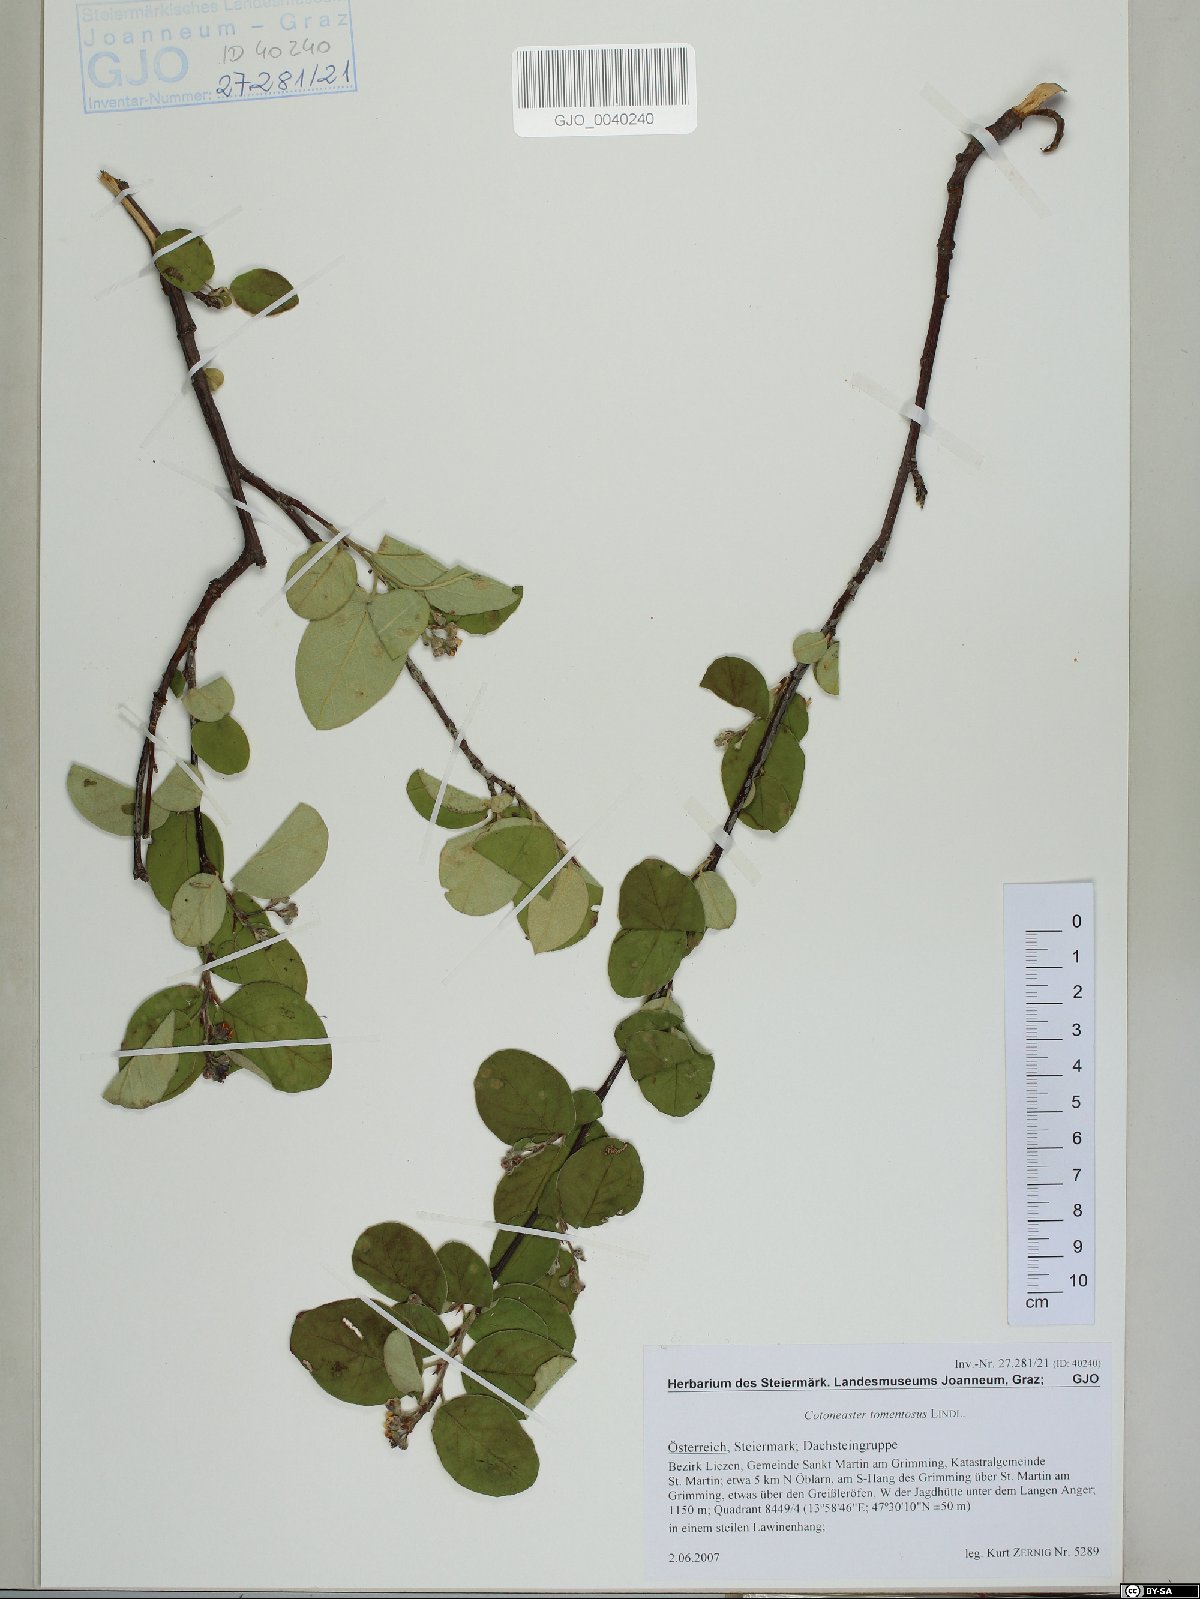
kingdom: Plantae
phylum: Tracheophyta
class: Magnoliopsida
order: Rosales
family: Rosaceae
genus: Cotoneaster
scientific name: Cotoneaster tomentosus
